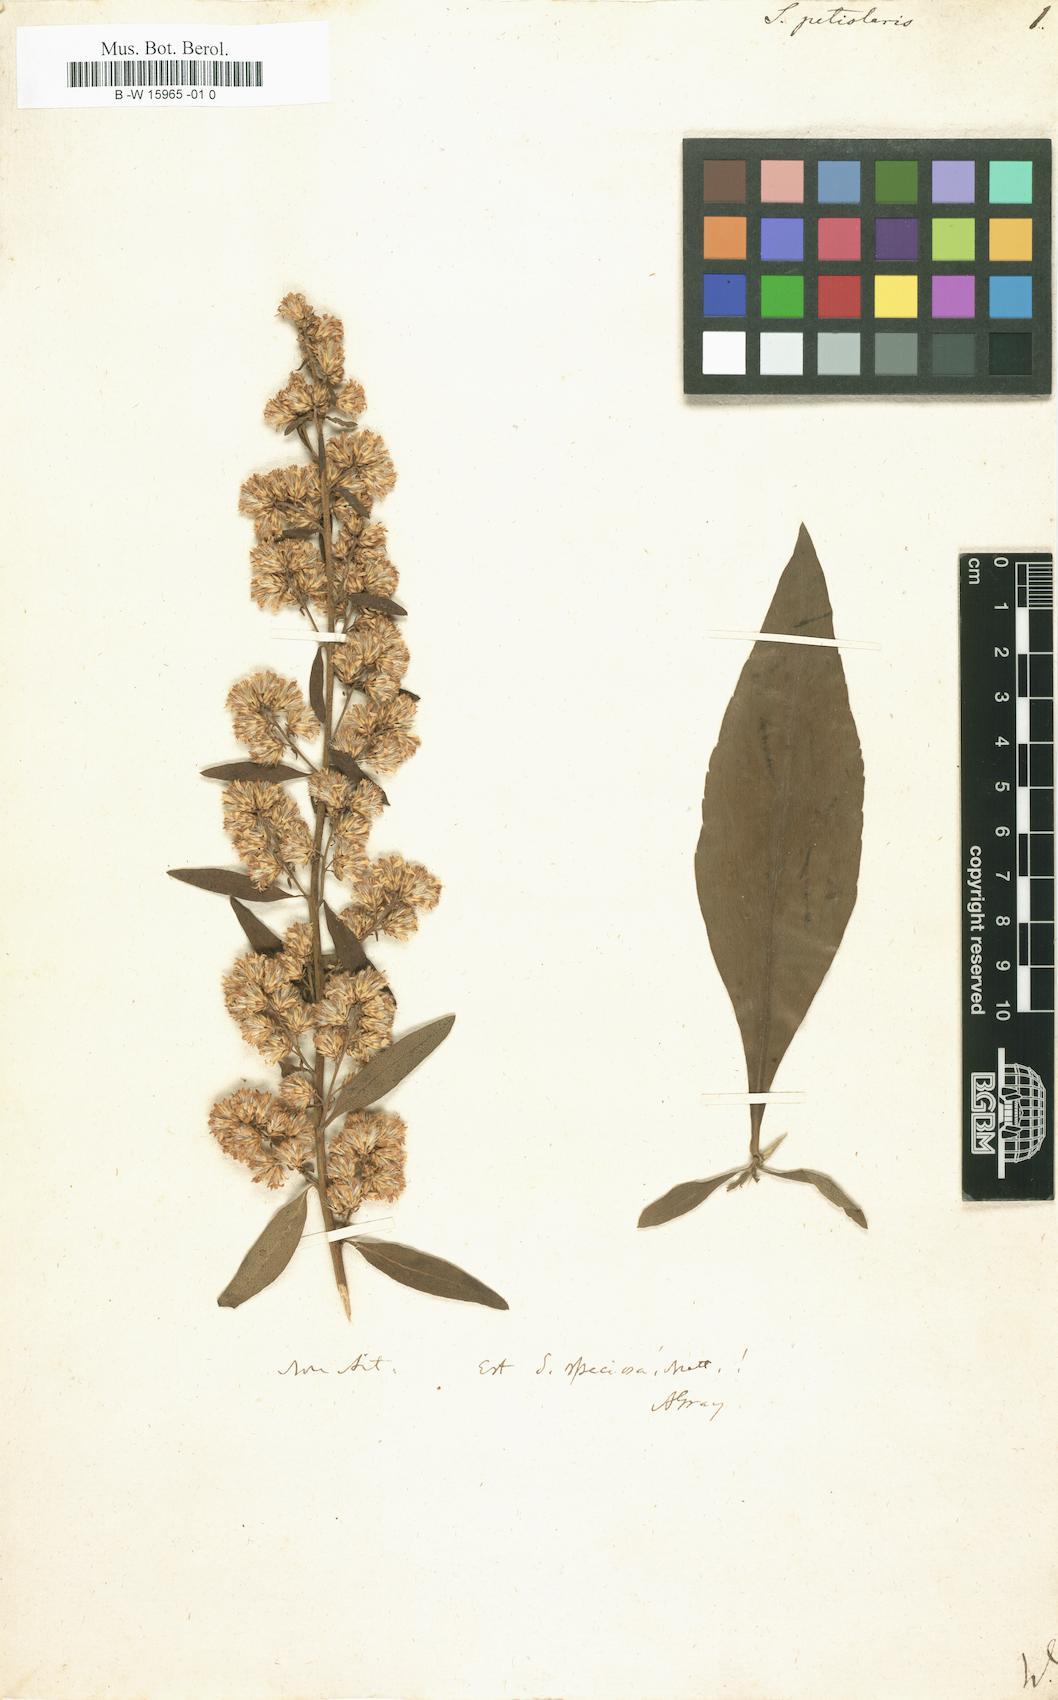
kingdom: Plantae
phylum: Tracheophyta
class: Magnoliopsida
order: Asterales
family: Asteraceae
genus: Solidago
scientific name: Solidago petiolaris
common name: Downy ragged goldenrod
